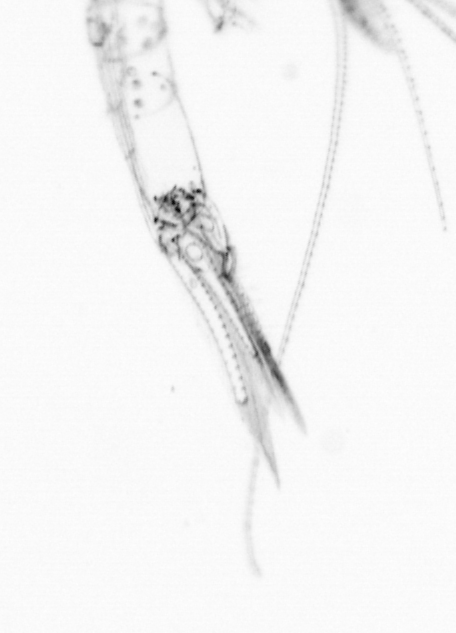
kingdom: Chromista
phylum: Ochrophyta
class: Bacillariophyceae
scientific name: Bacillariophyceae
